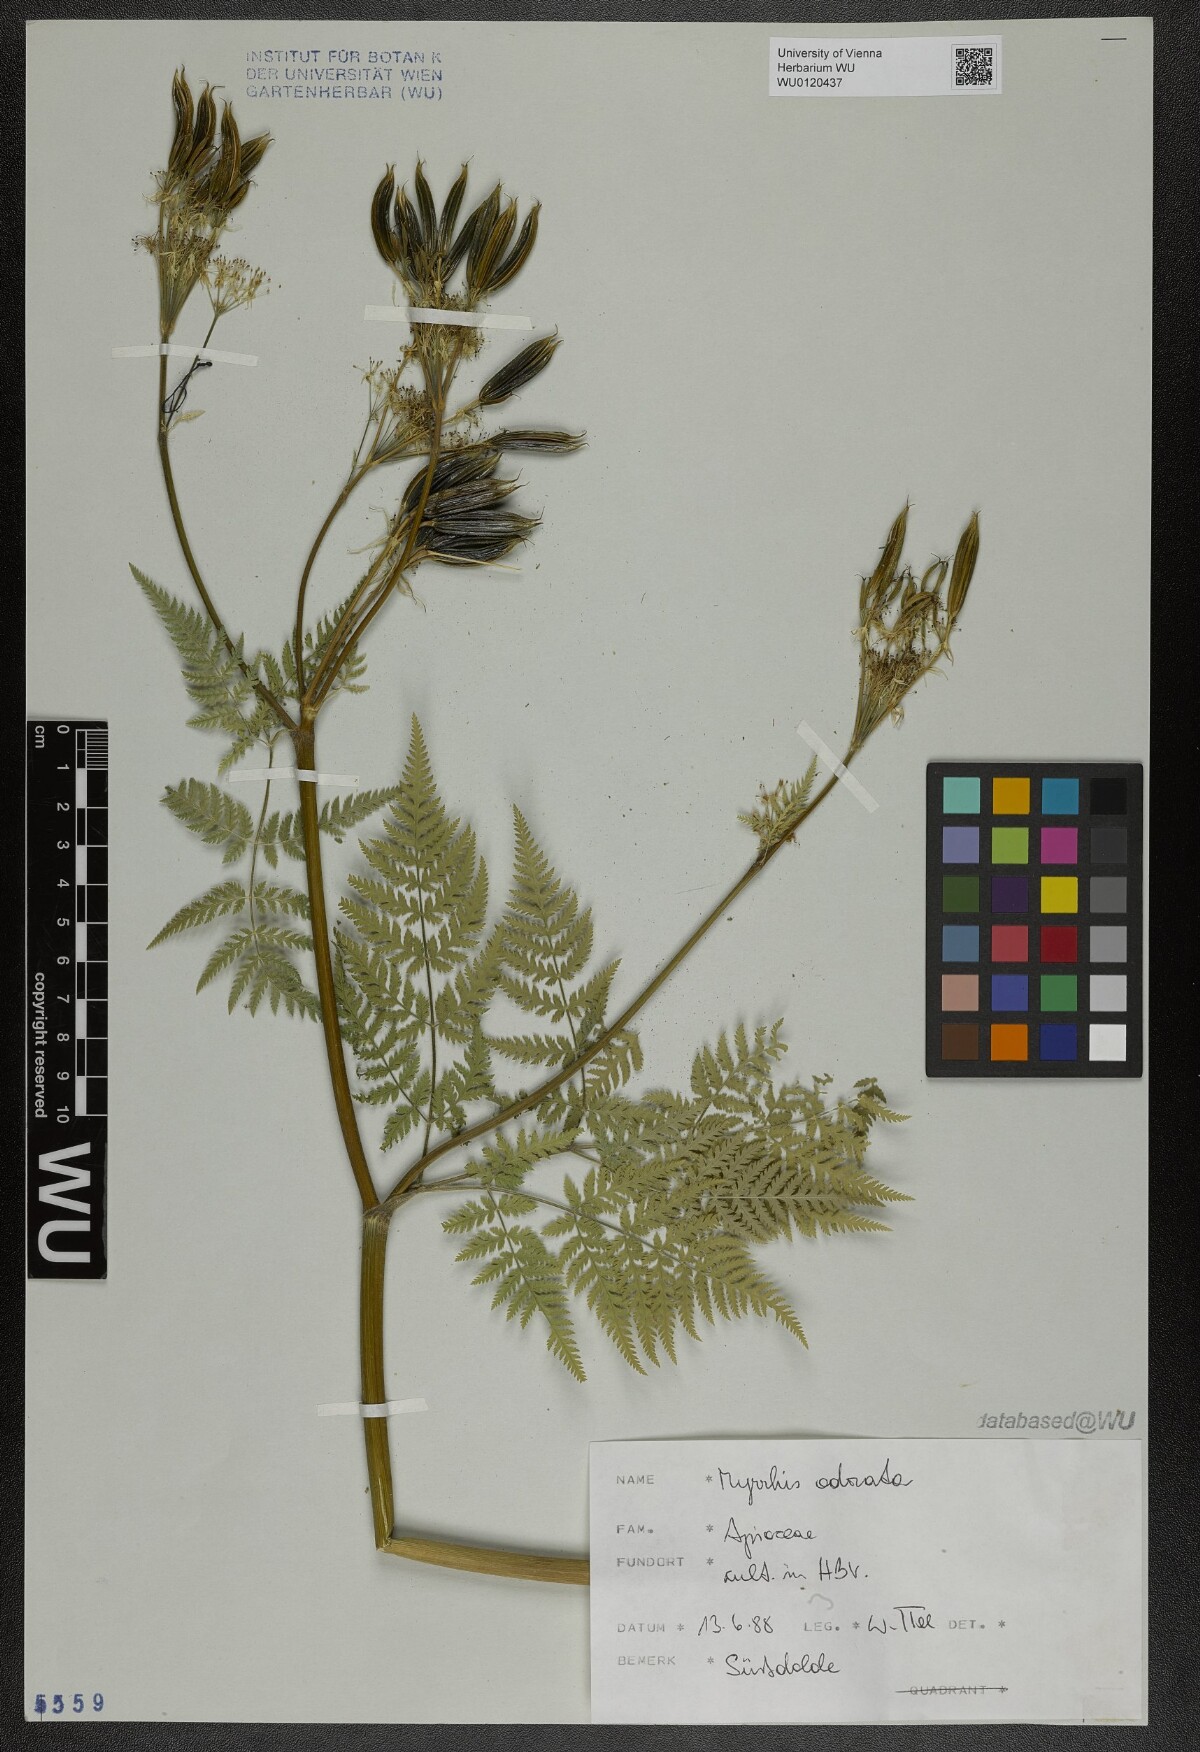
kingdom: Plantae
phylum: Tracheophyta
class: Magnoliopsida
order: Apiales
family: Apiaceae
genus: Myrrhis
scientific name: Myrrhis odorata
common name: Sweet cicely
